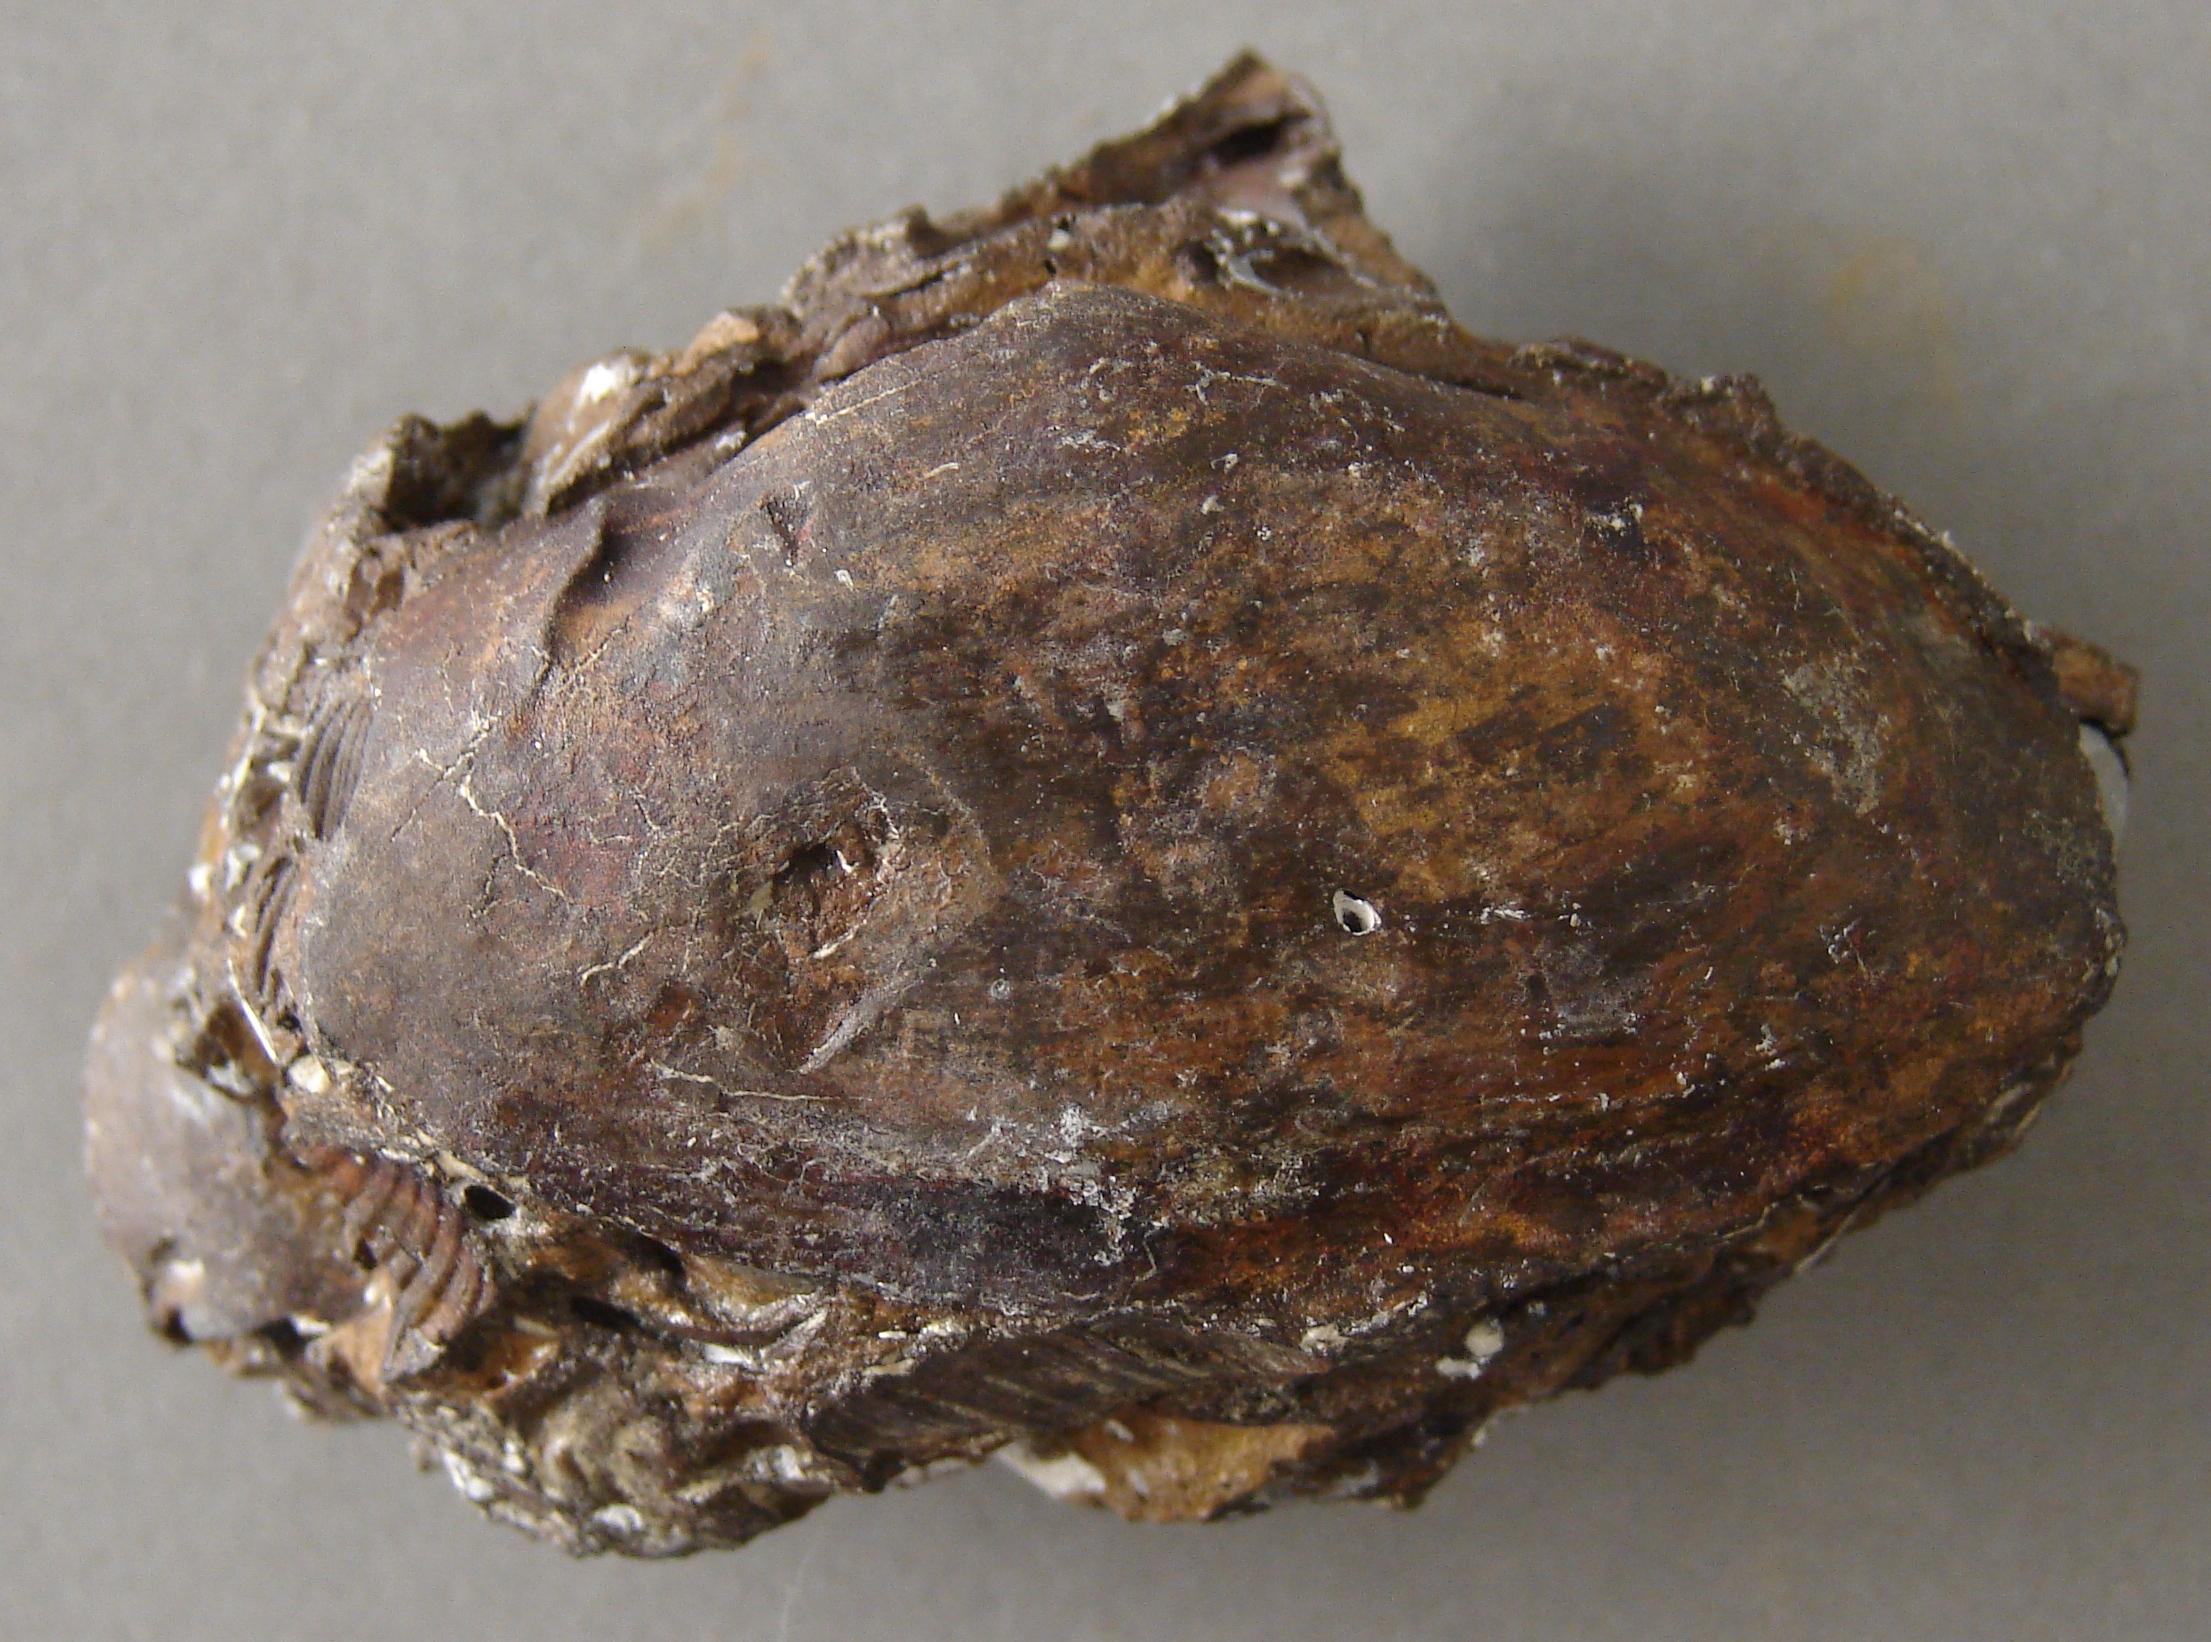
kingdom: Animalia
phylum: Mollusca
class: Bivalvia
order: Cardiida
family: Tancrediidae
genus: Corbicella
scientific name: Corbicella
